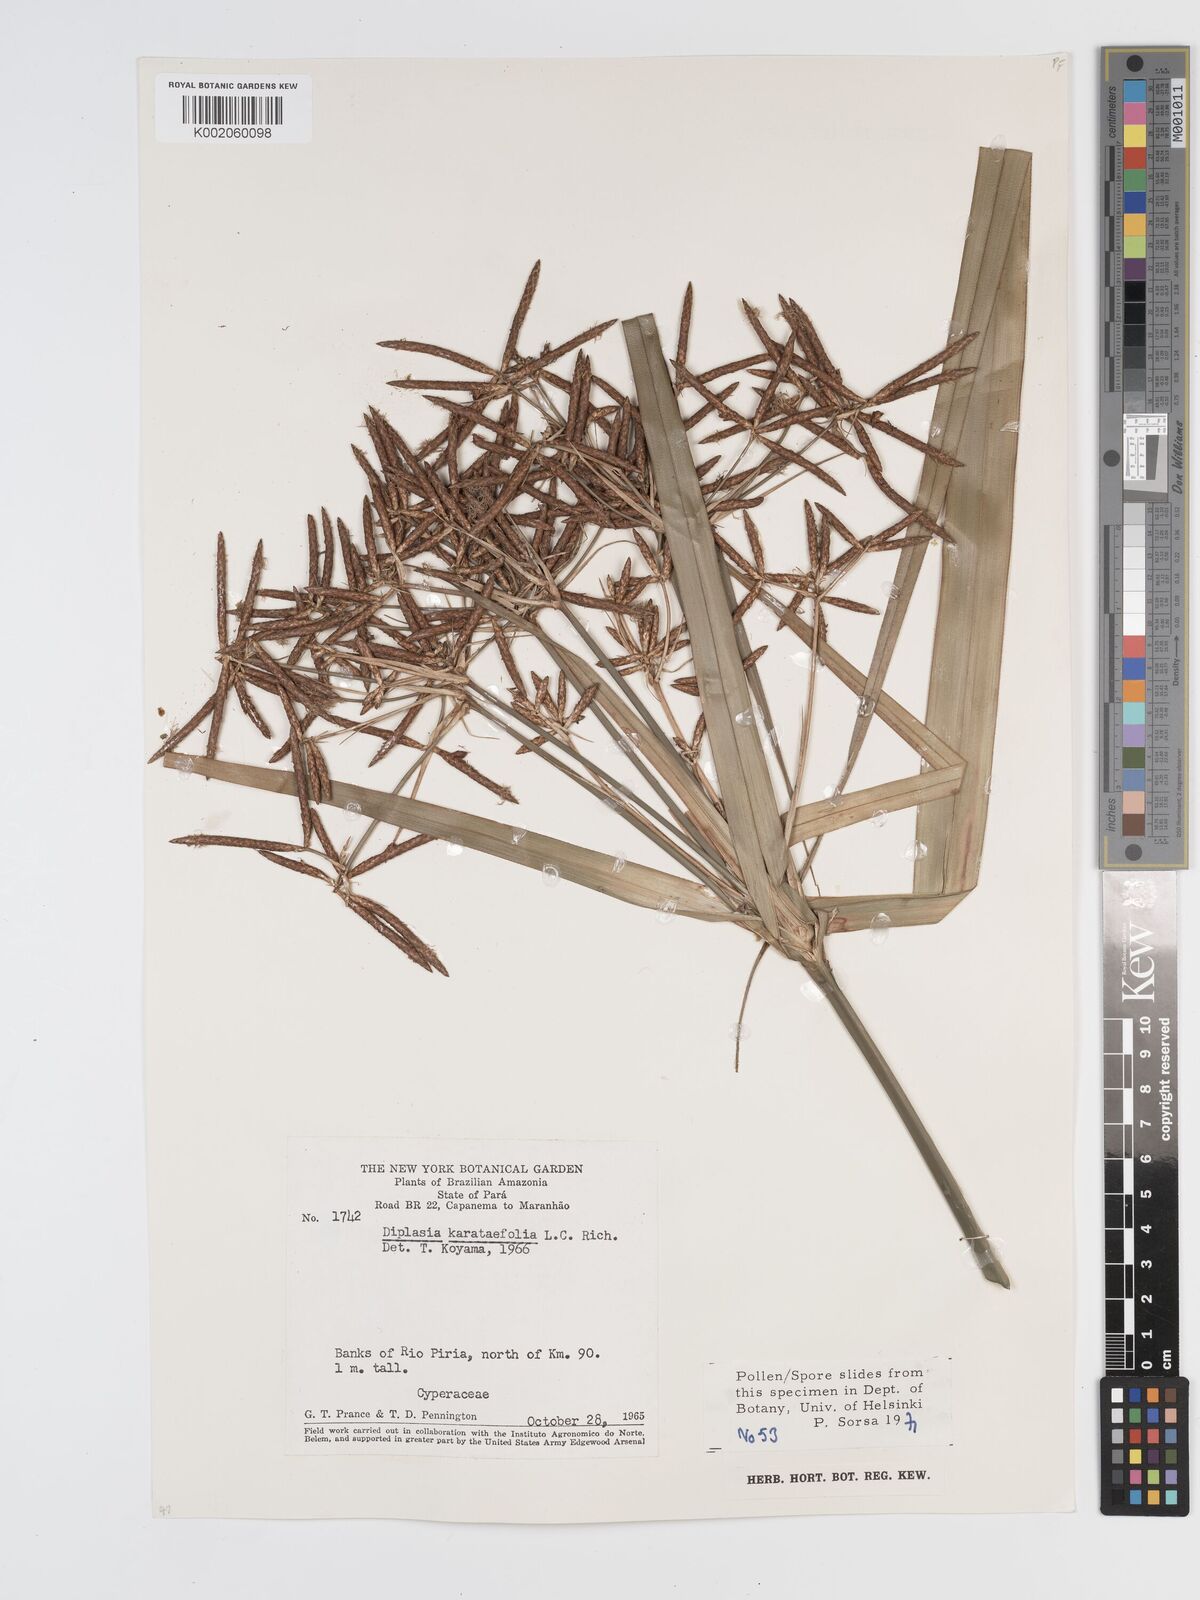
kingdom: Plantae
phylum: Tracheophyta
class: Liliopsida
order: Poales
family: Cyperaceae
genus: Diplasia
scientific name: Diplasia karatifolia
